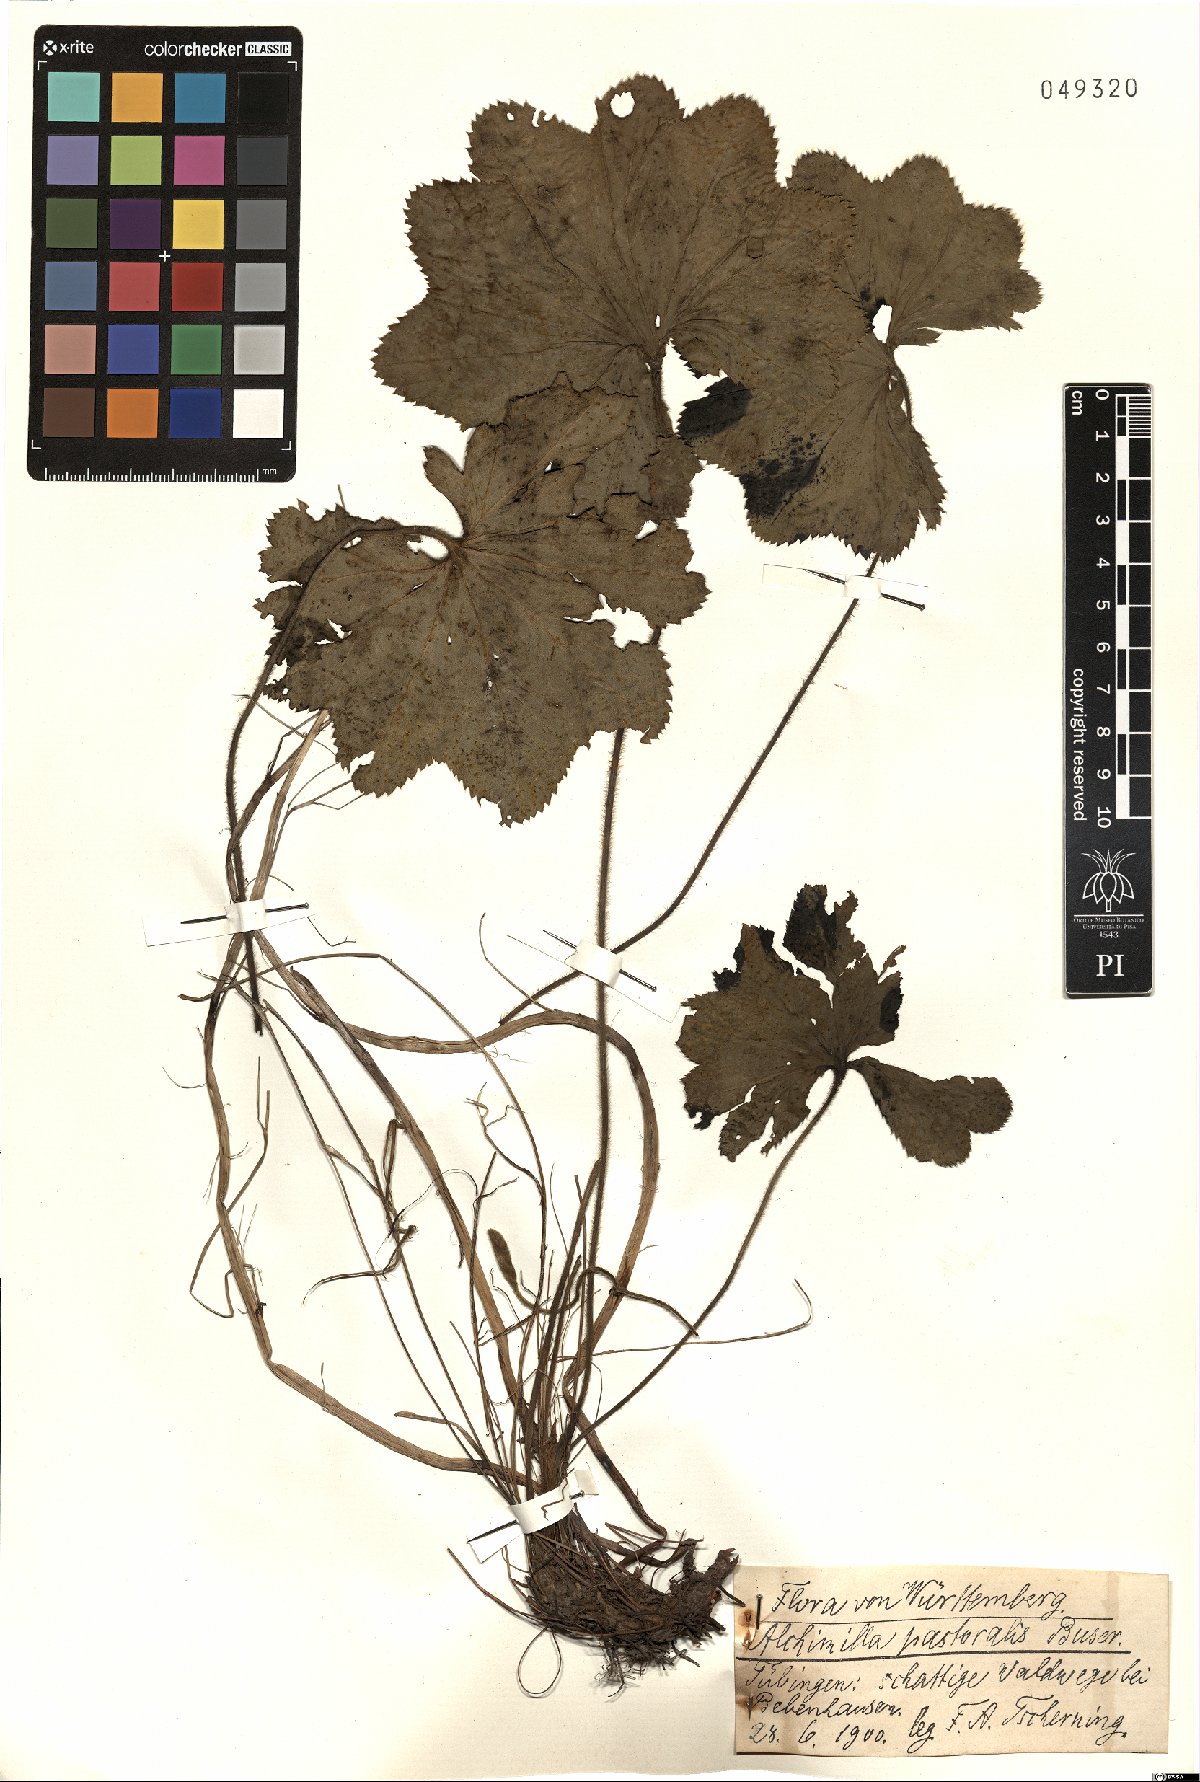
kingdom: Plantae
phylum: Tracheophyta
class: Magnoliopsida
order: Rosales
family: Rosaceae
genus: Alchemilla
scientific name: Alchemilla monticola
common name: Hairy lady's mantle
